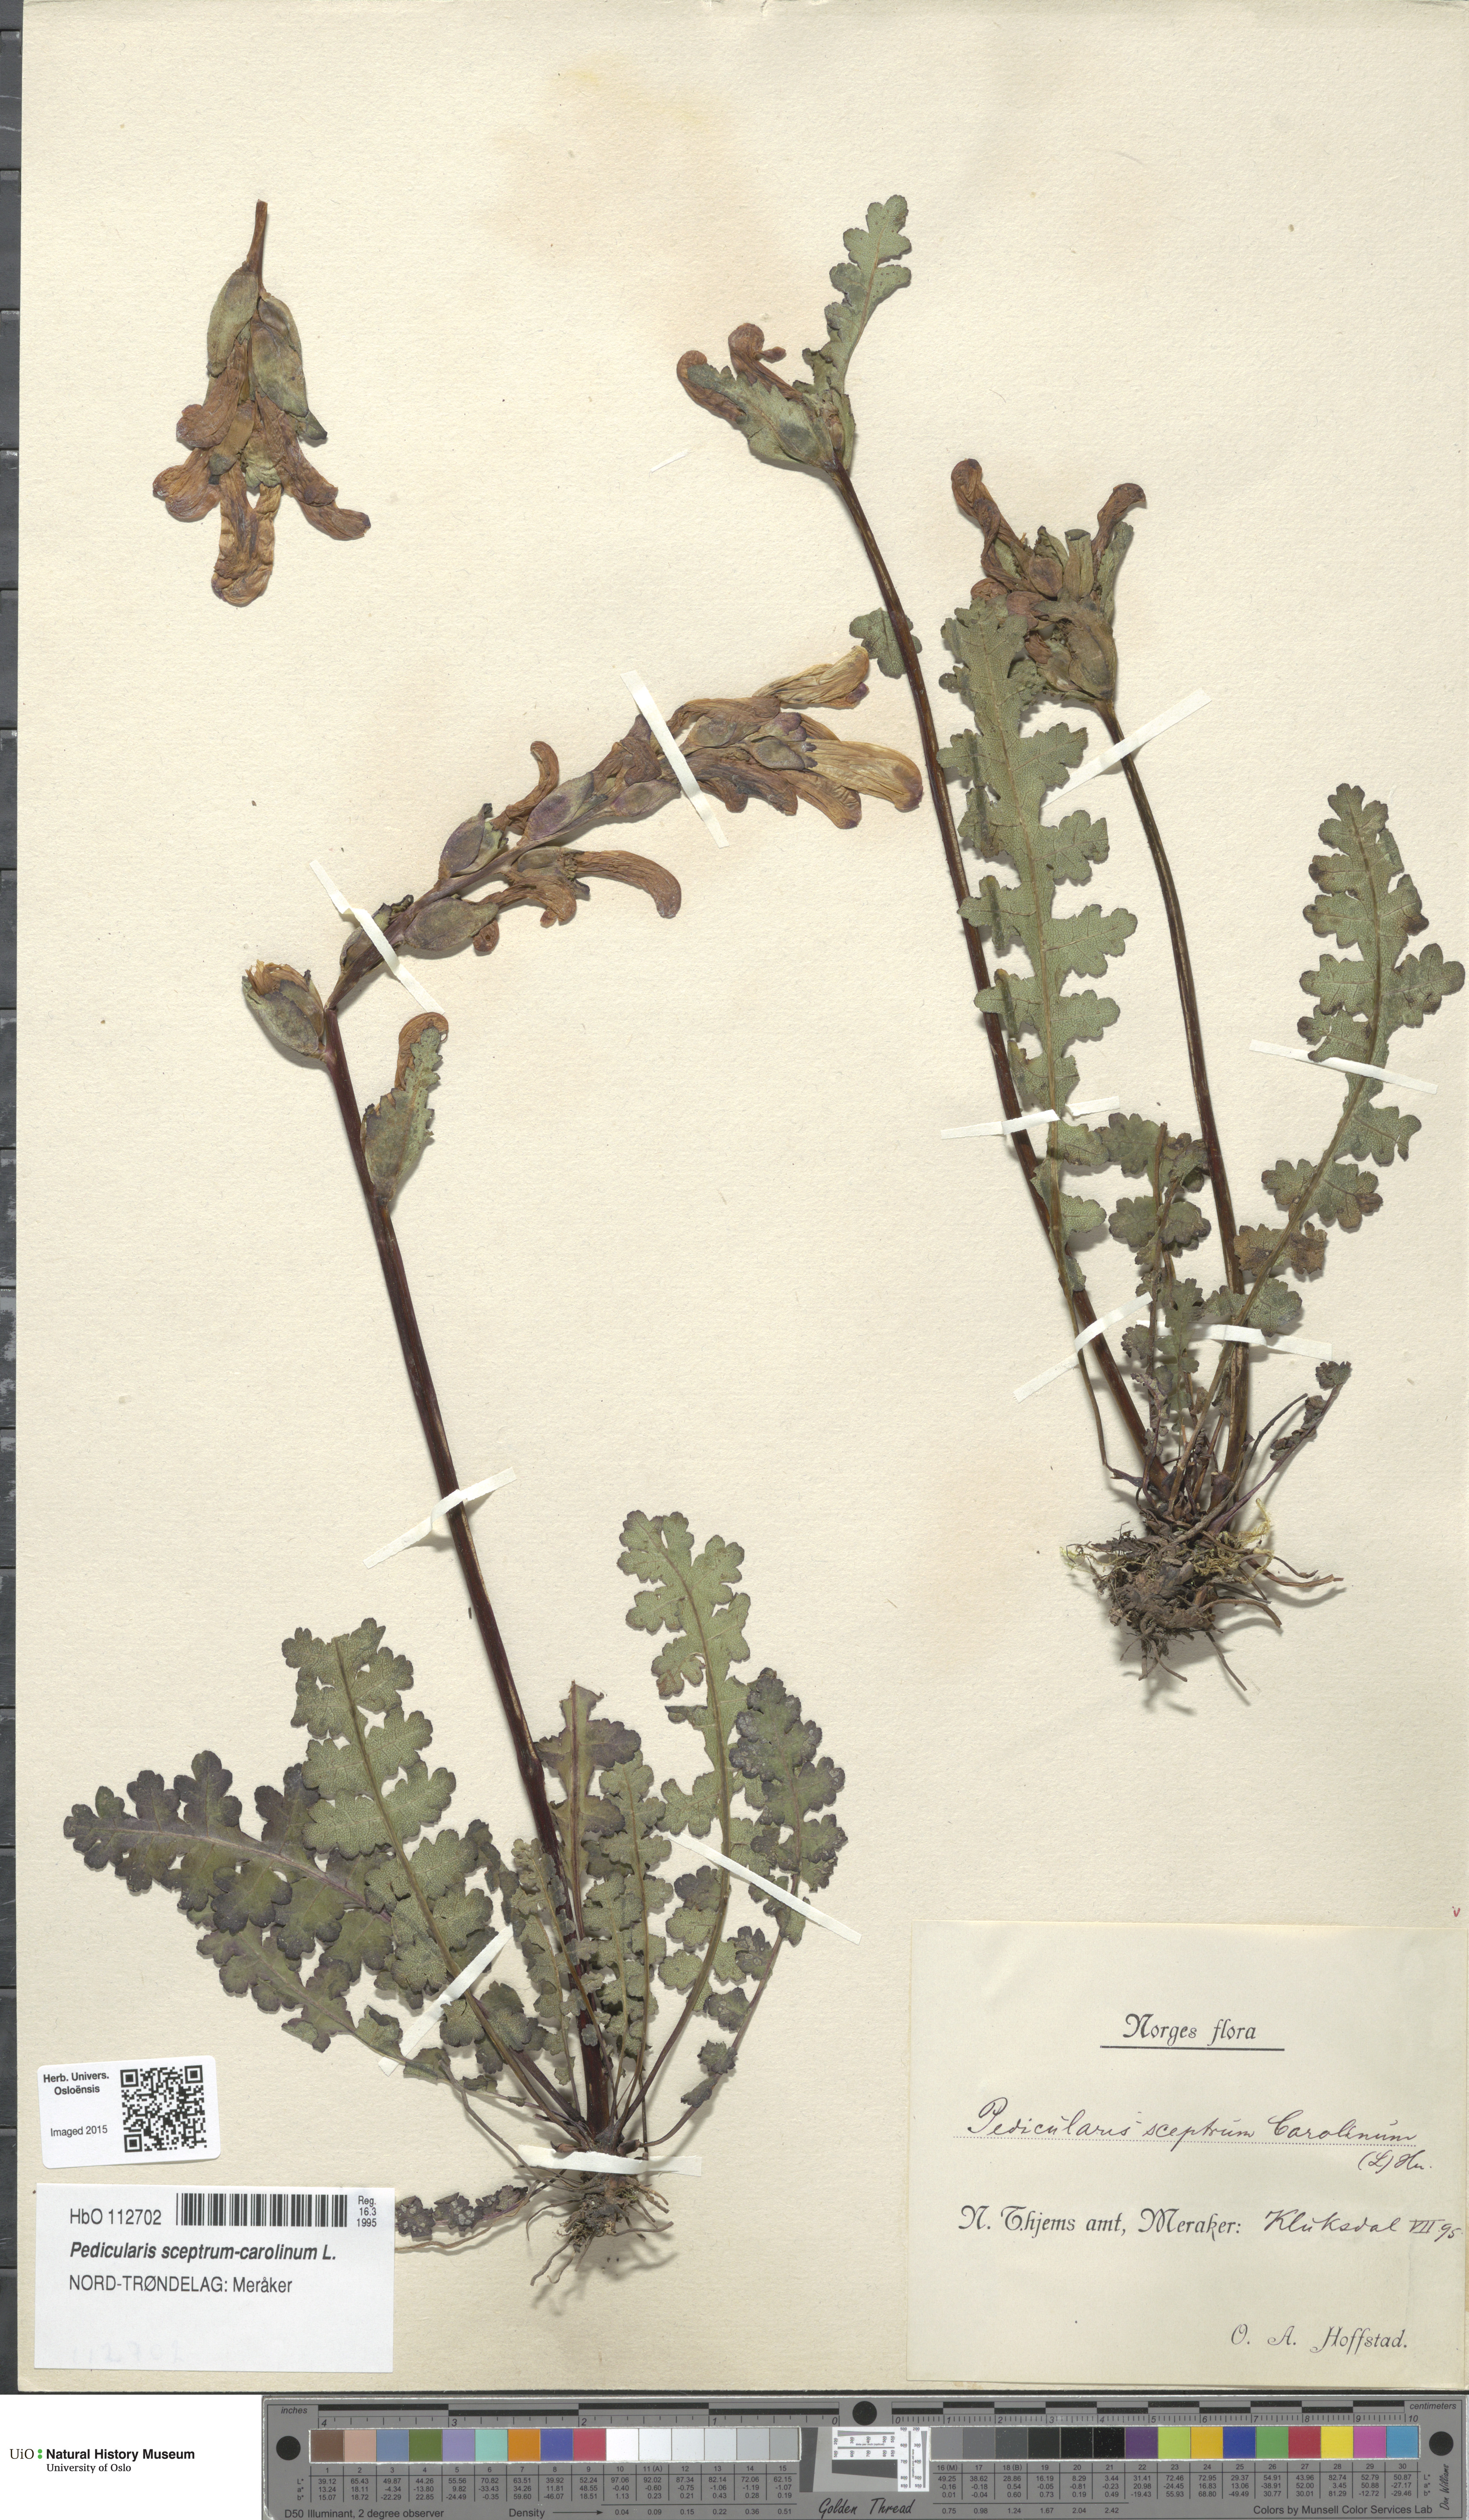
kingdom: Plantae
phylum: Tracheophyta
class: Magnoliopsida
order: Lamiales
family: Orobanchaceae
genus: Pedicularis
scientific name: Pedicularis sceptrum-carolinum
